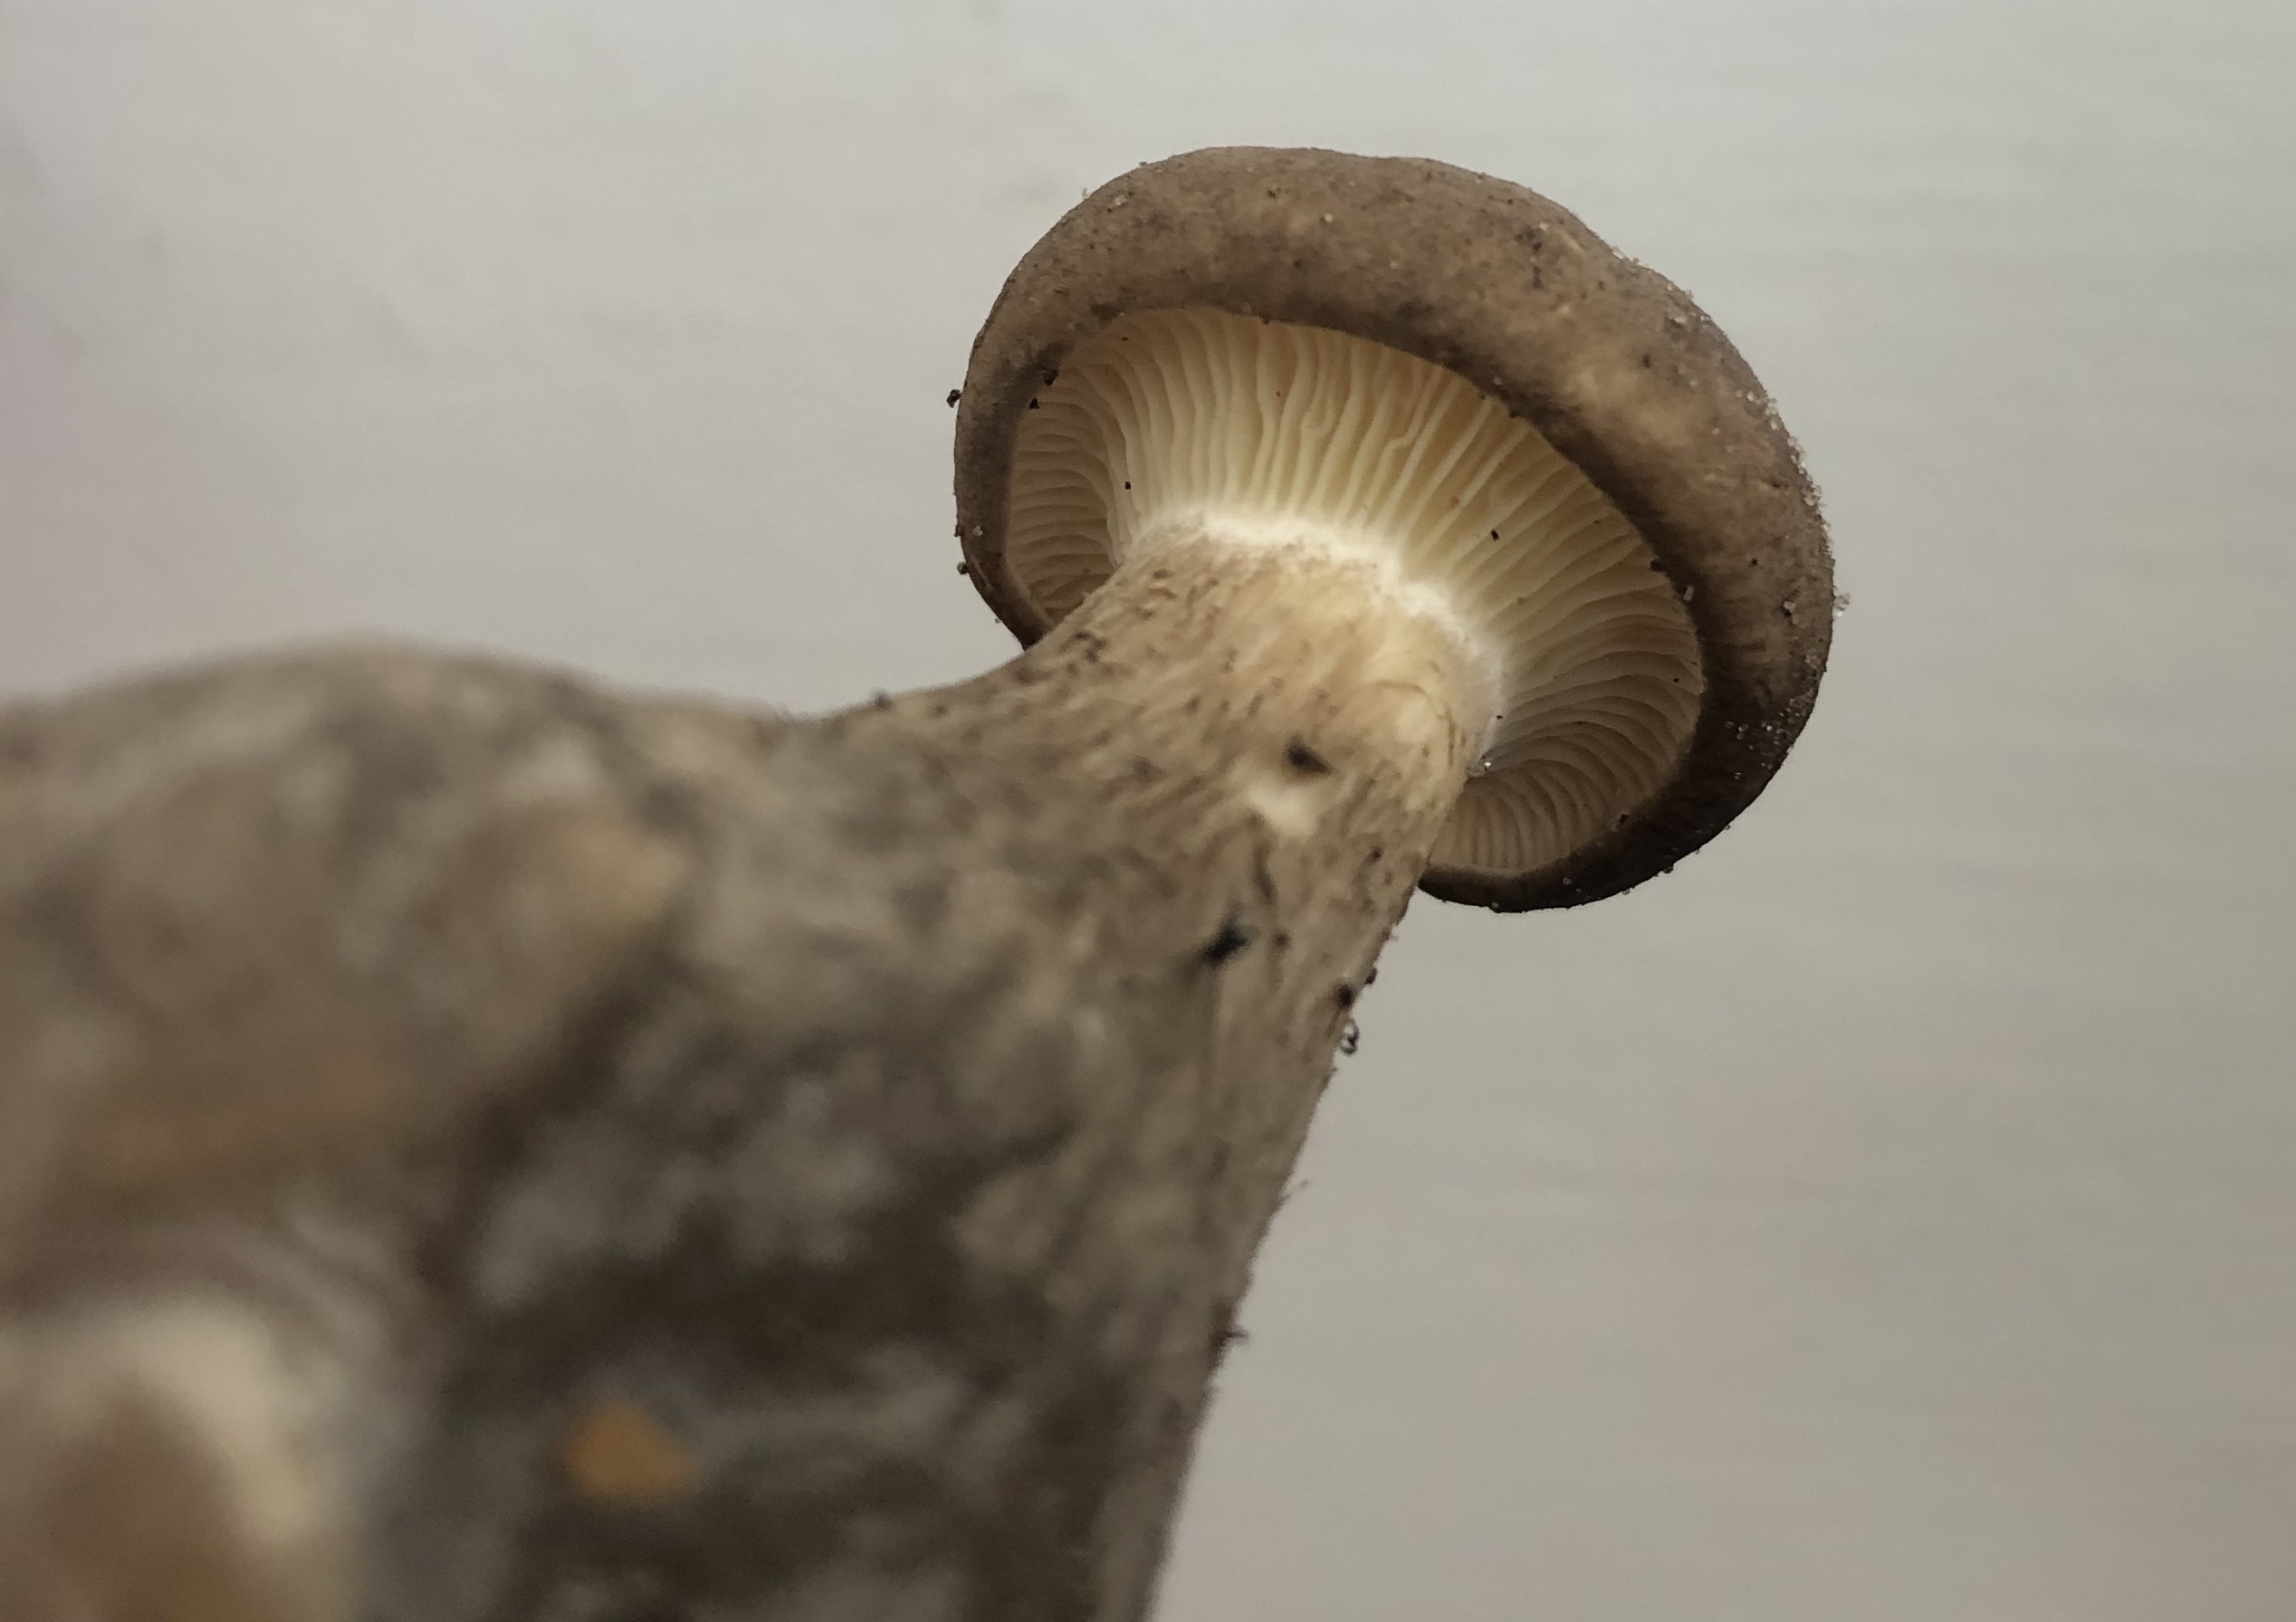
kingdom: Fungi
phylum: Basidiomycota
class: Agaricomycetes
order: Agaricales
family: Hygrophoraceae
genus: Ampulloclitocybe
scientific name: Ampulloclitocybe clavipes
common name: køllefod
